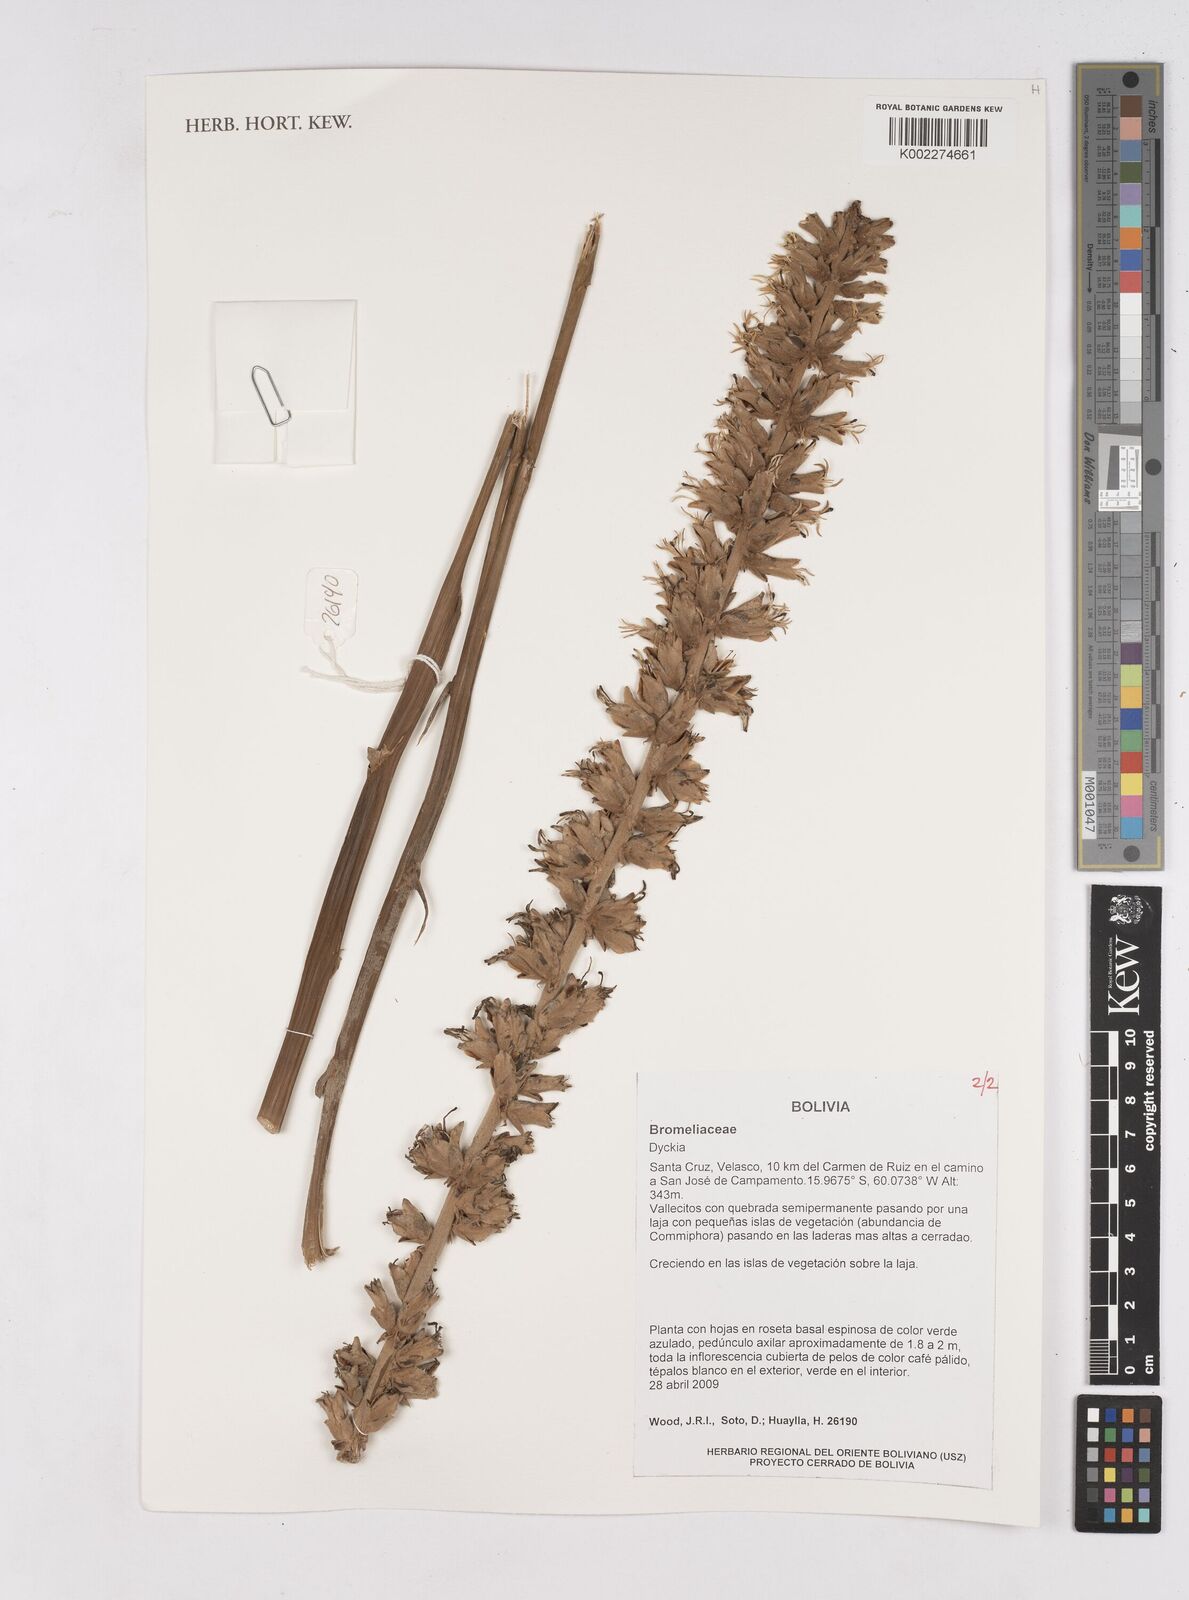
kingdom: Plantae
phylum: Tracheophyta
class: Liliopsida
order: Poales
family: Bromeliaceae
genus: Dyckia
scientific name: Dyckia
